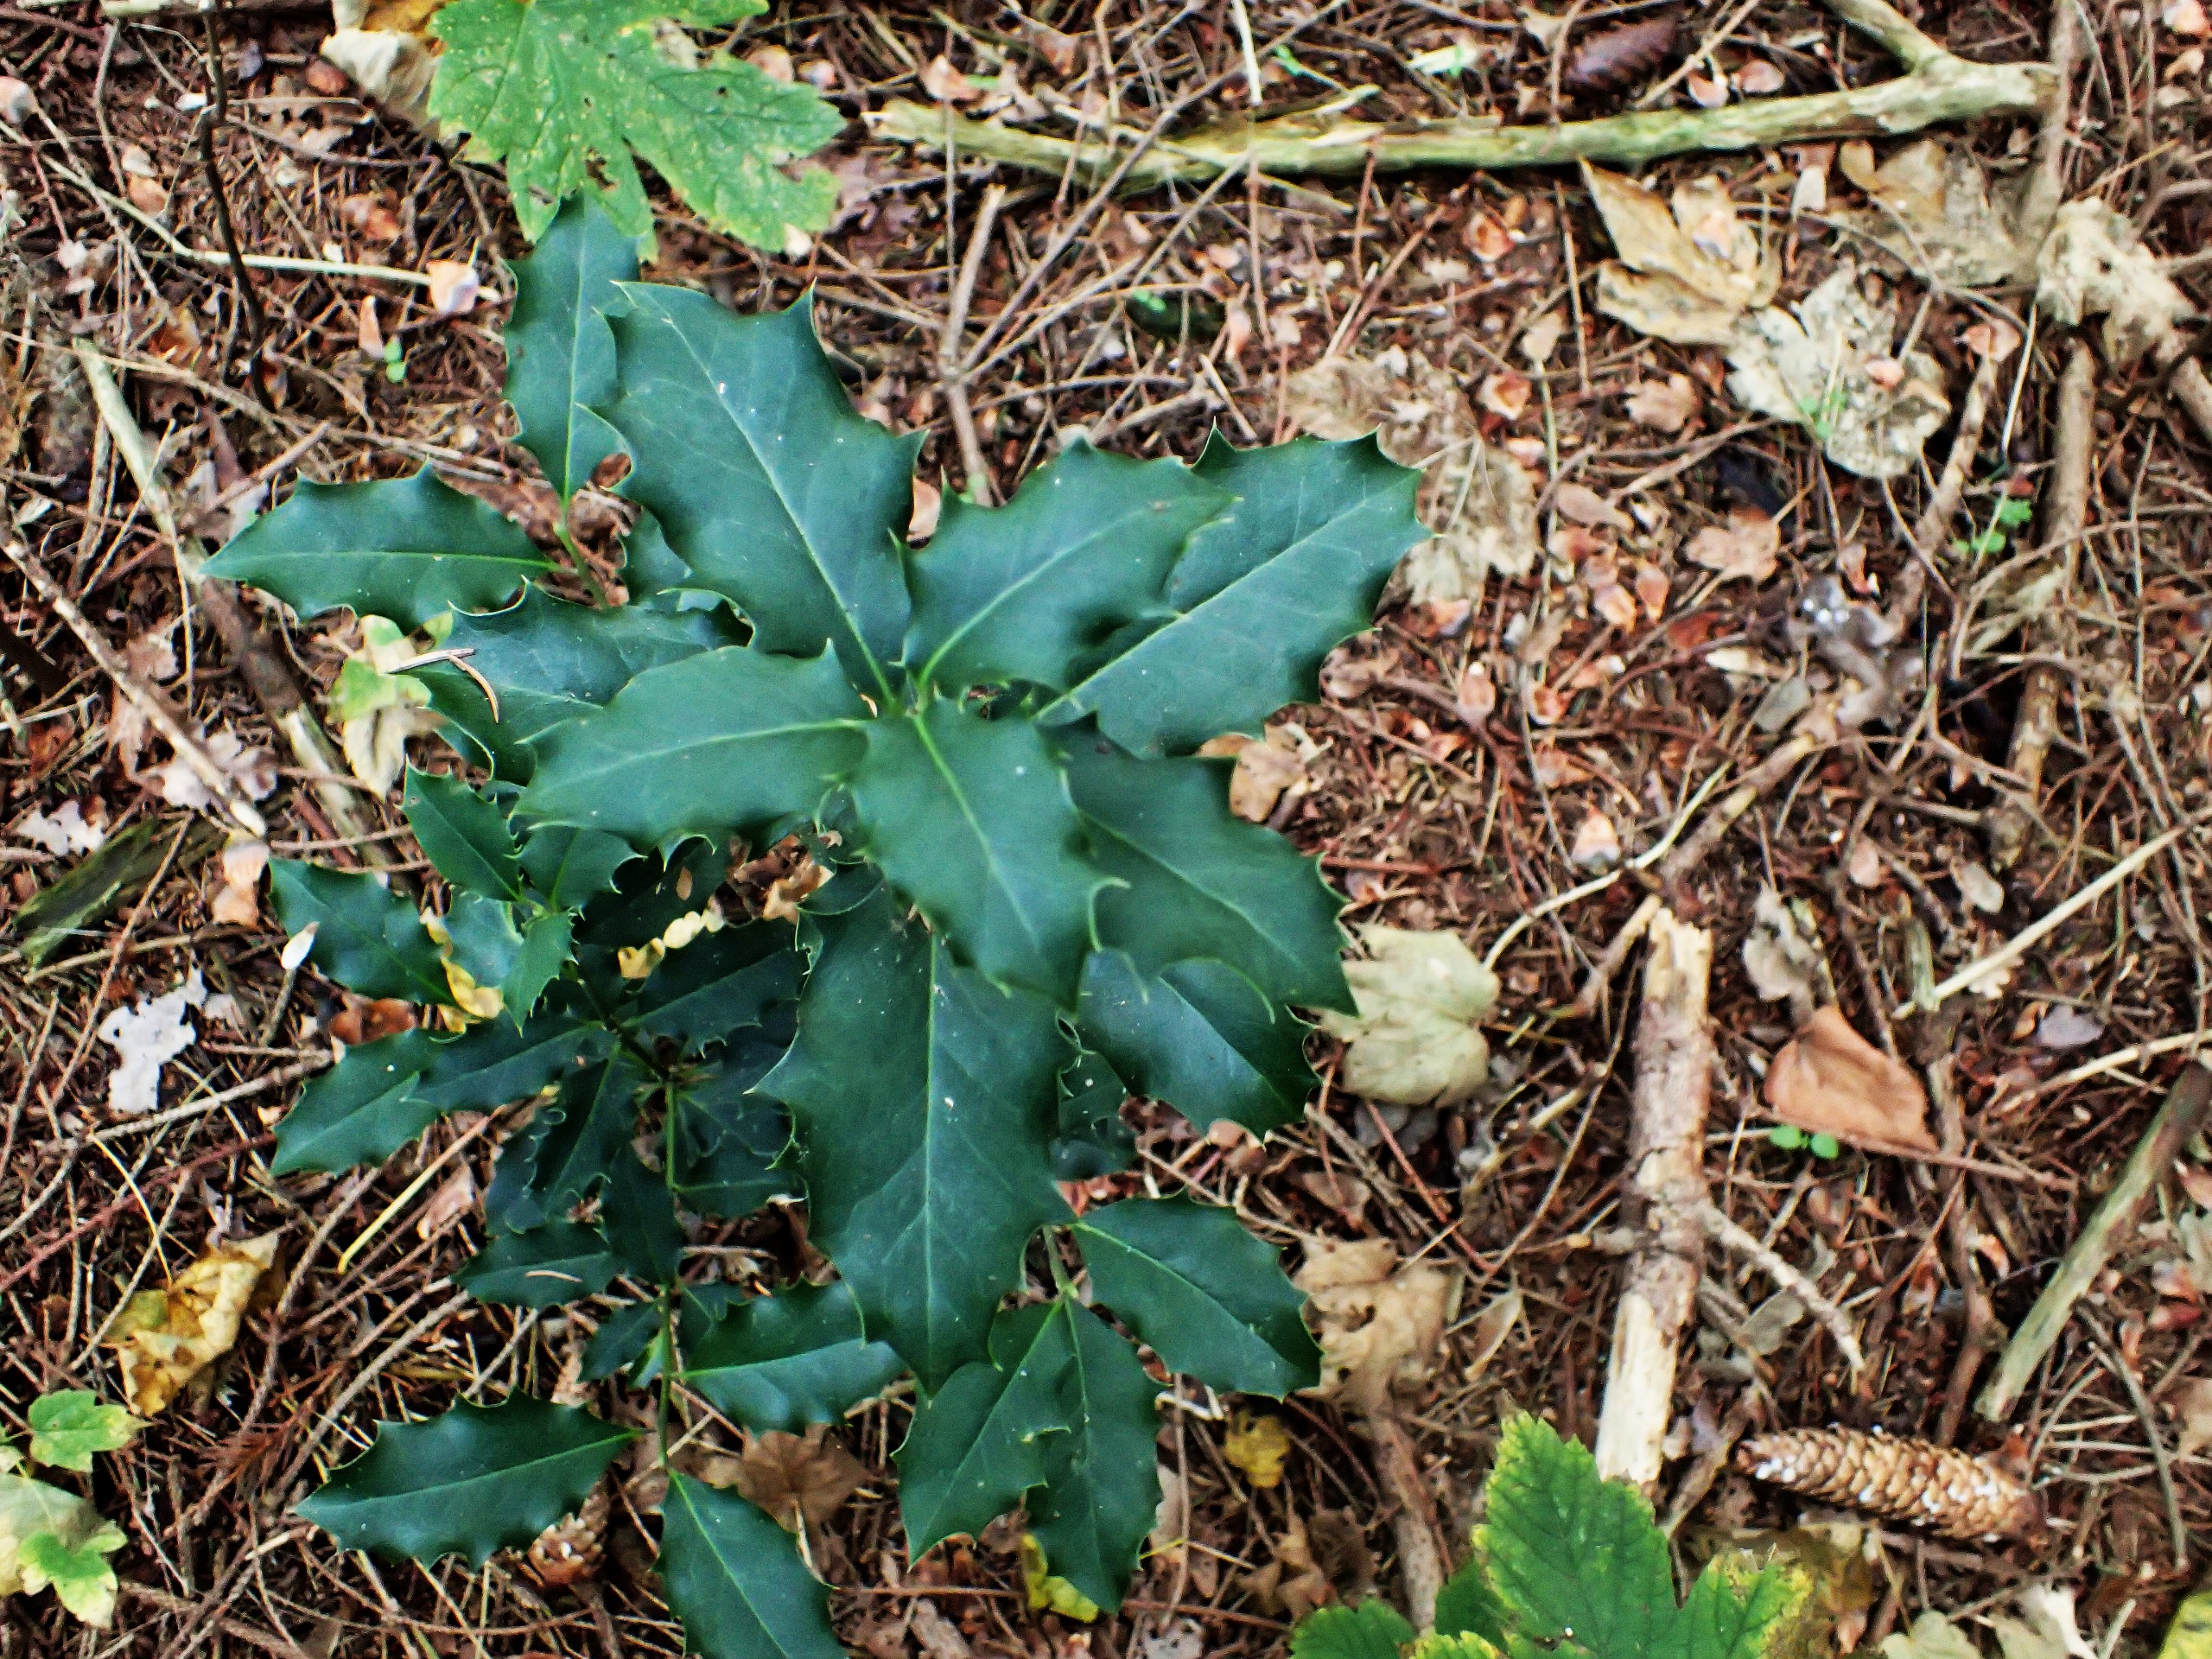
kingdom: Plantae
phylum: Tracheophyta
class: Magnoliopsida
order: Aquifoliales
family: Aquifoliaceae
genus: Ilex
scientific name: Ilex aquifolium
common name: Kristtorn
